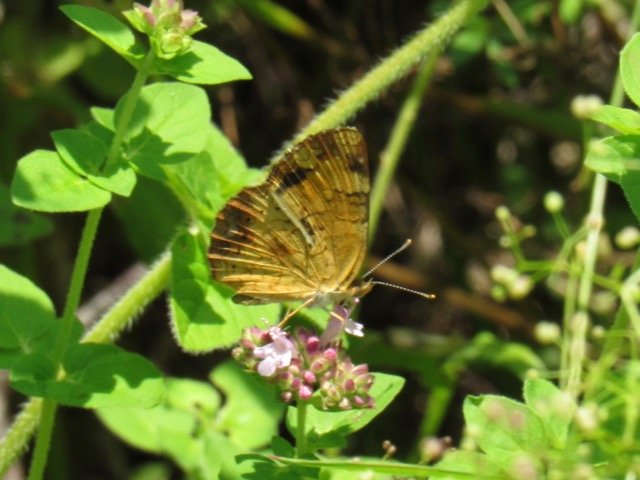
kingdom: Animalia
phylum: Arthropoda
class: Insecta
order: Lepidoptera
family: Nymphalidae
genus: Phyciodes
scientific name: Phyciodes tharos
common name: Pearl Crescent
